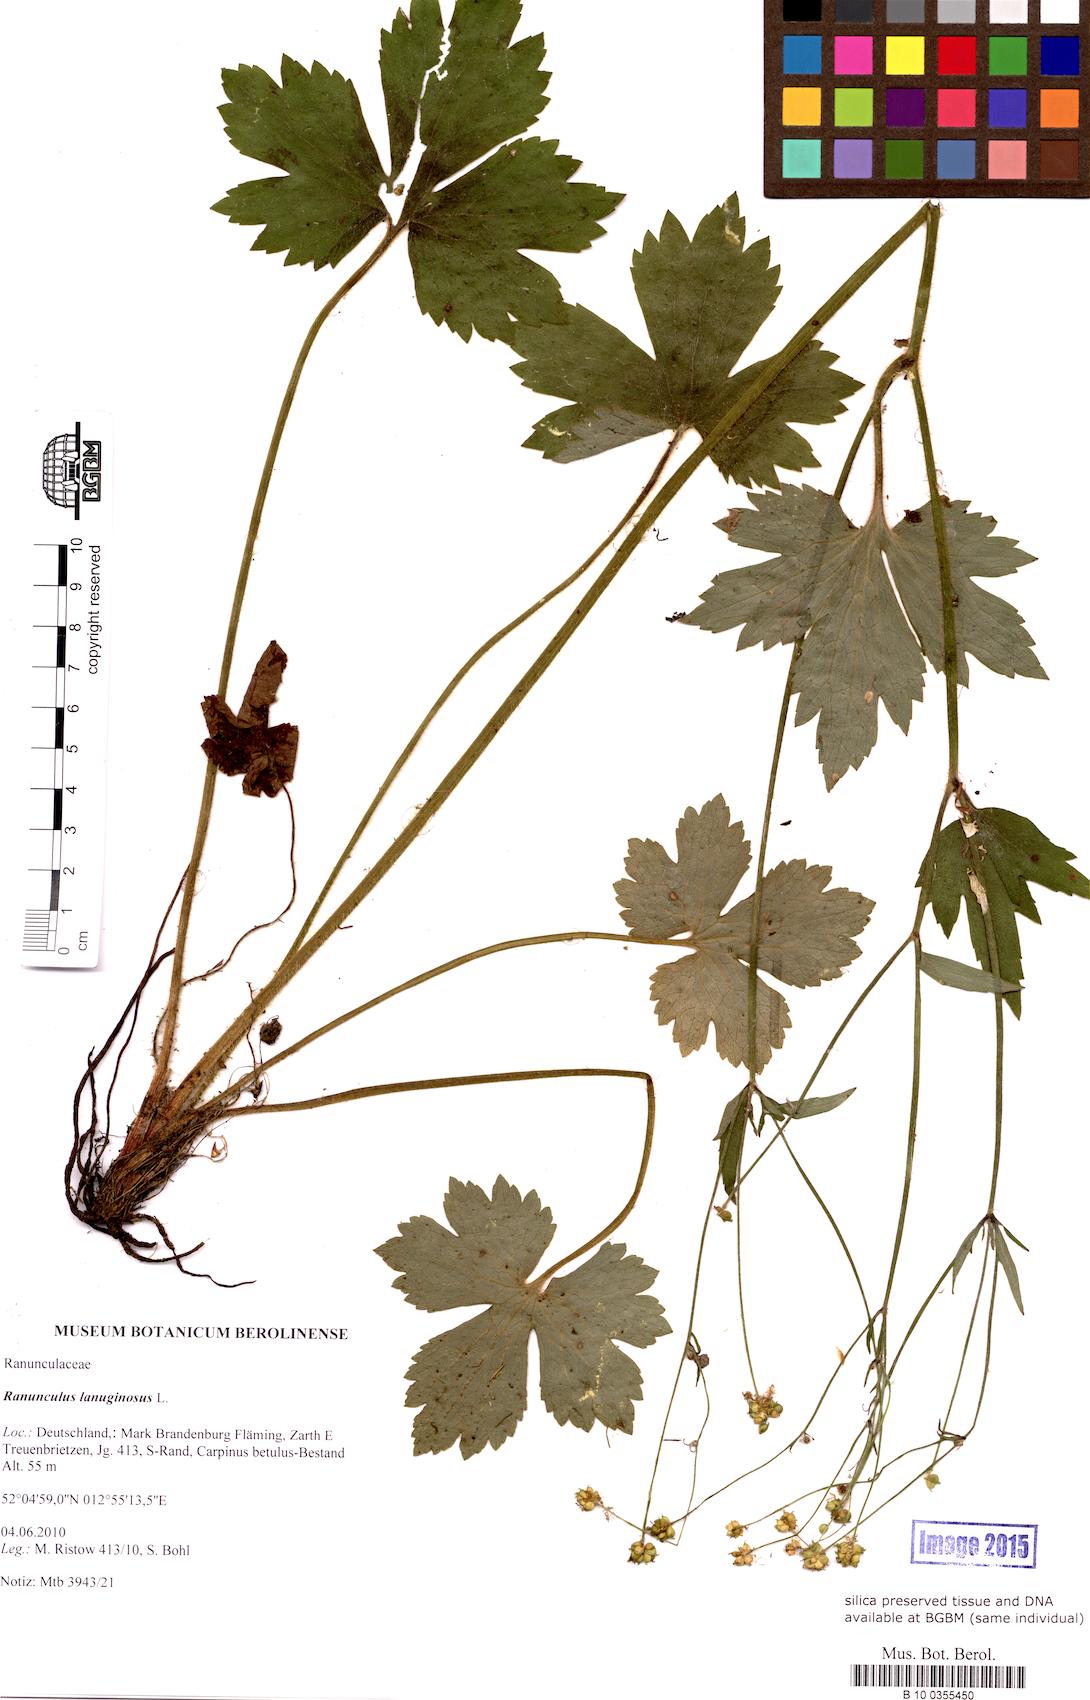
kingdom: Plantae
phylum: Tracheophyta
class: Magnoliopsida
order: Ranunculales
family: Ranunculaceae
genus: Ranunculus
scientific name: Ranunculus lanuginosus
